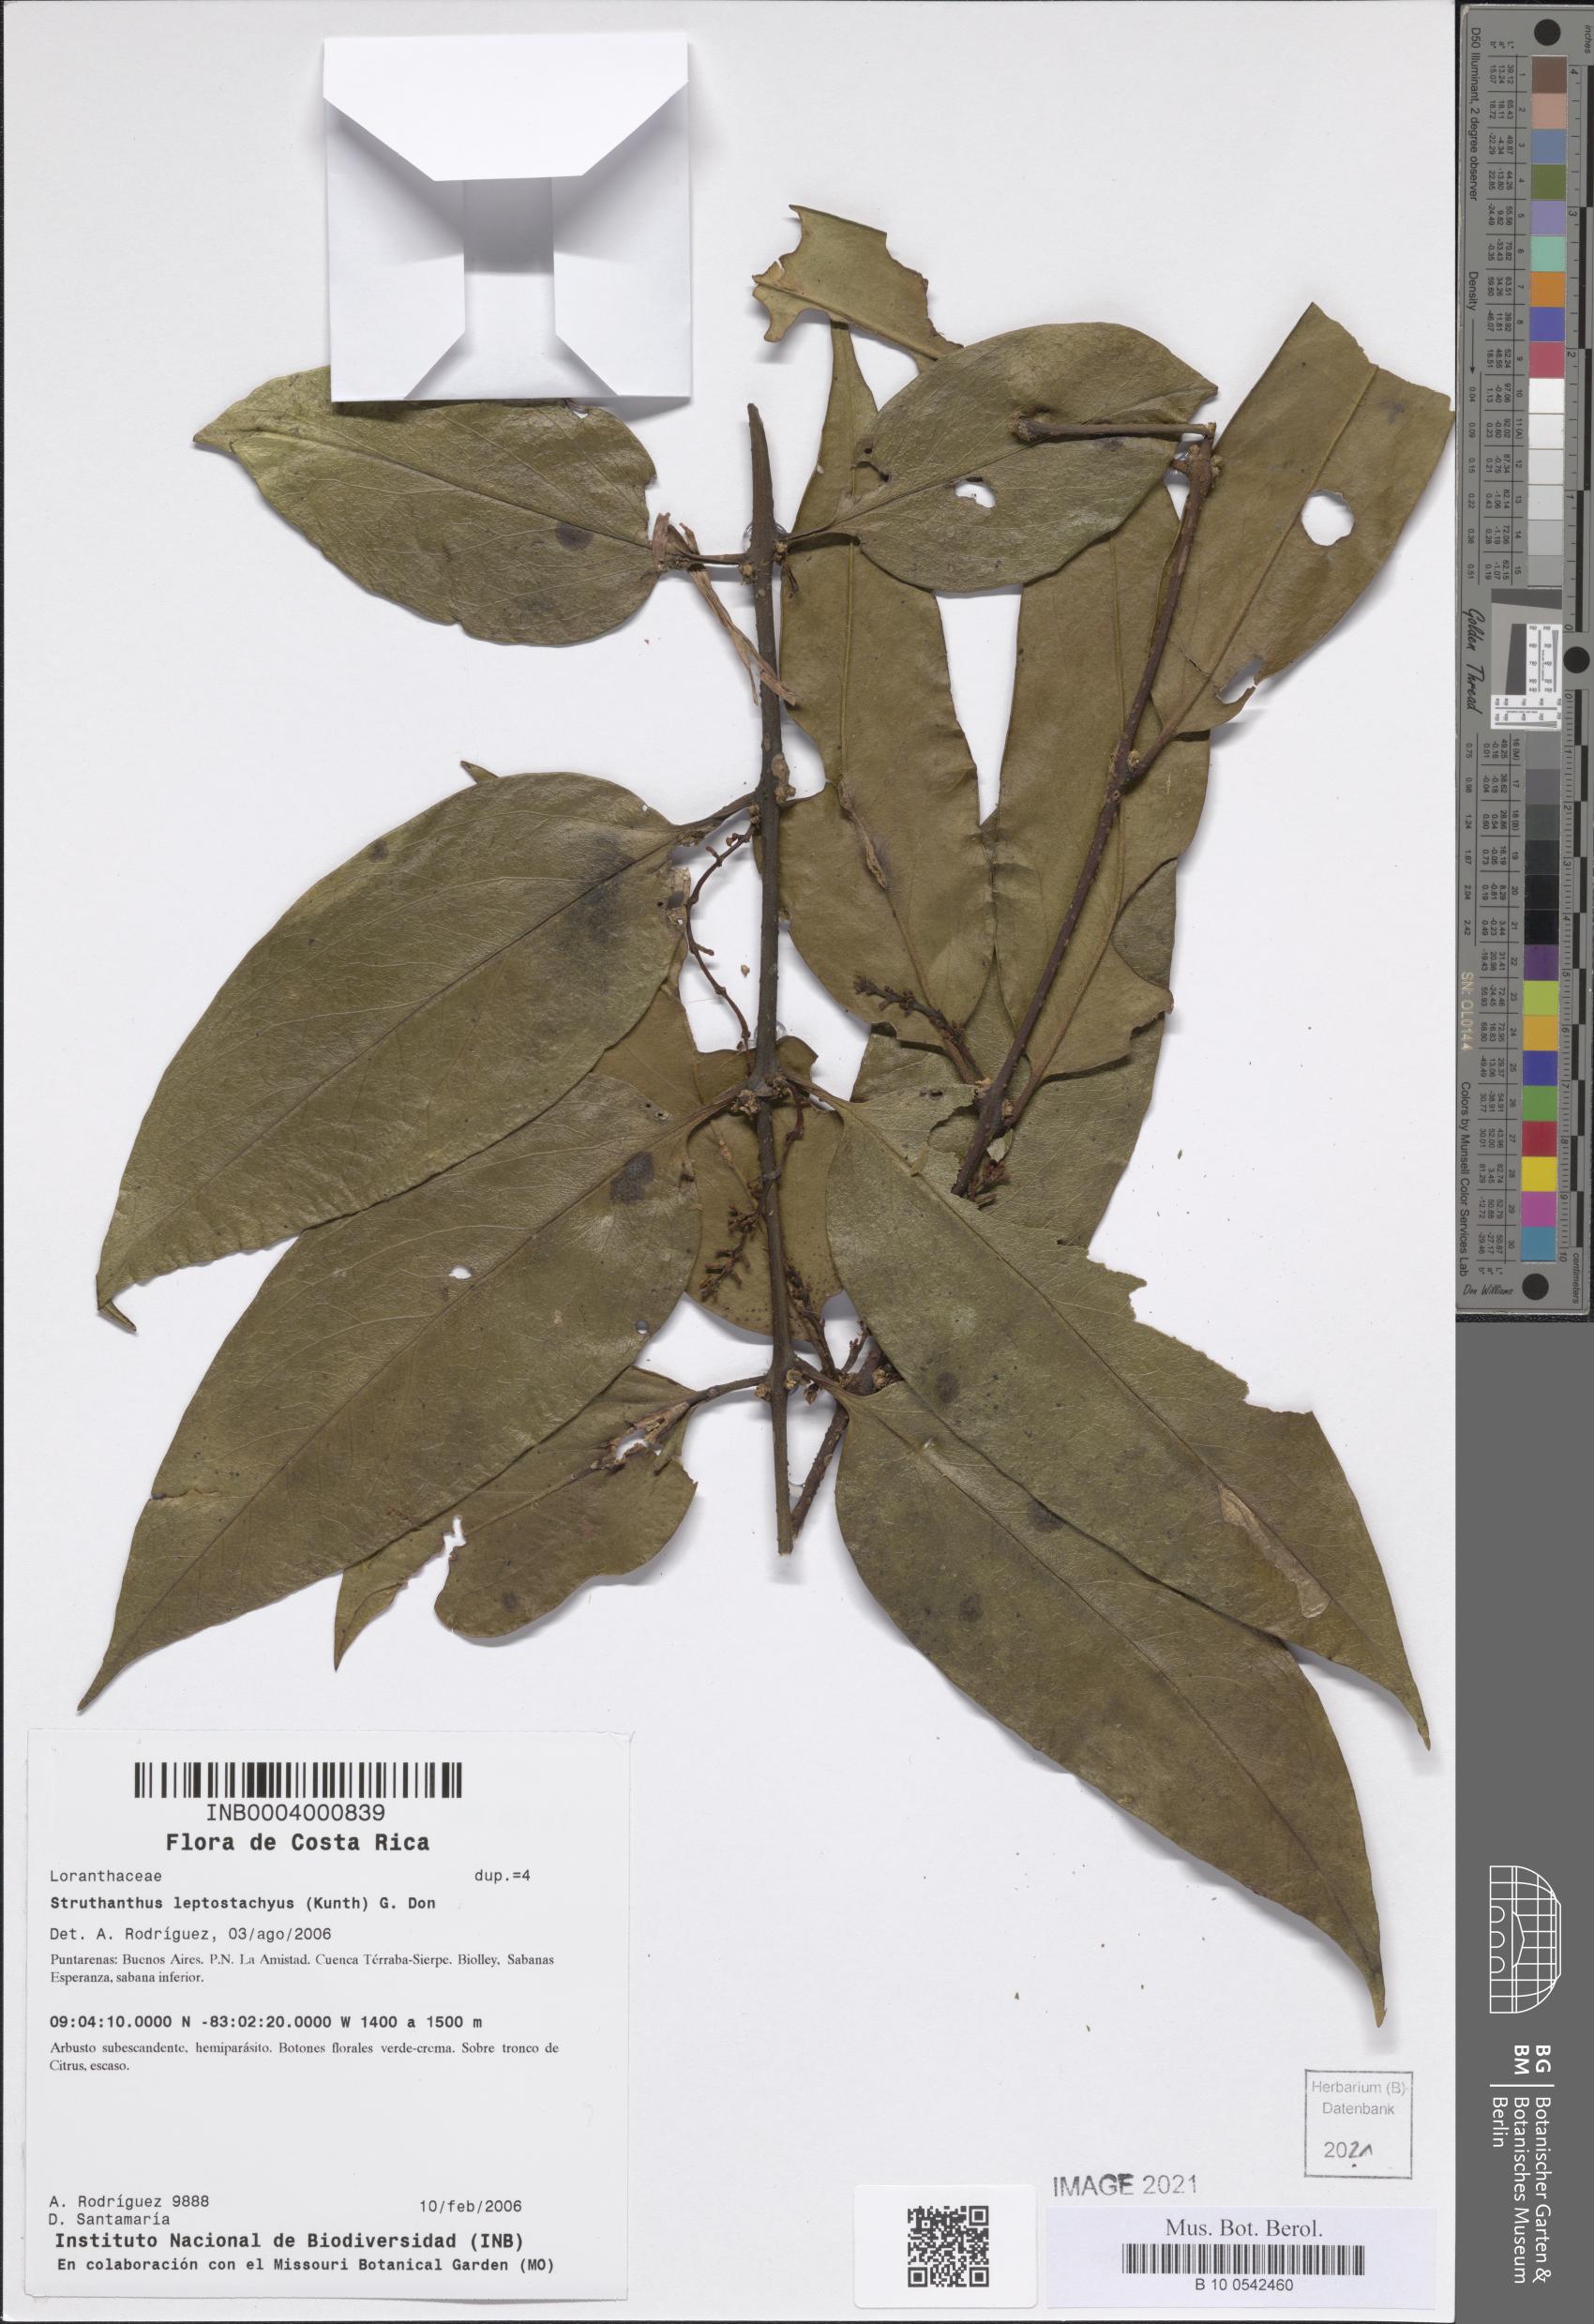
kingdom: Plantae
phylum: Tracheophyta
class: Magnoliopsida
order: Santalales
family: Loranthaceae
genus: Peristethium
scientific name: Peristethium leptostachyum
